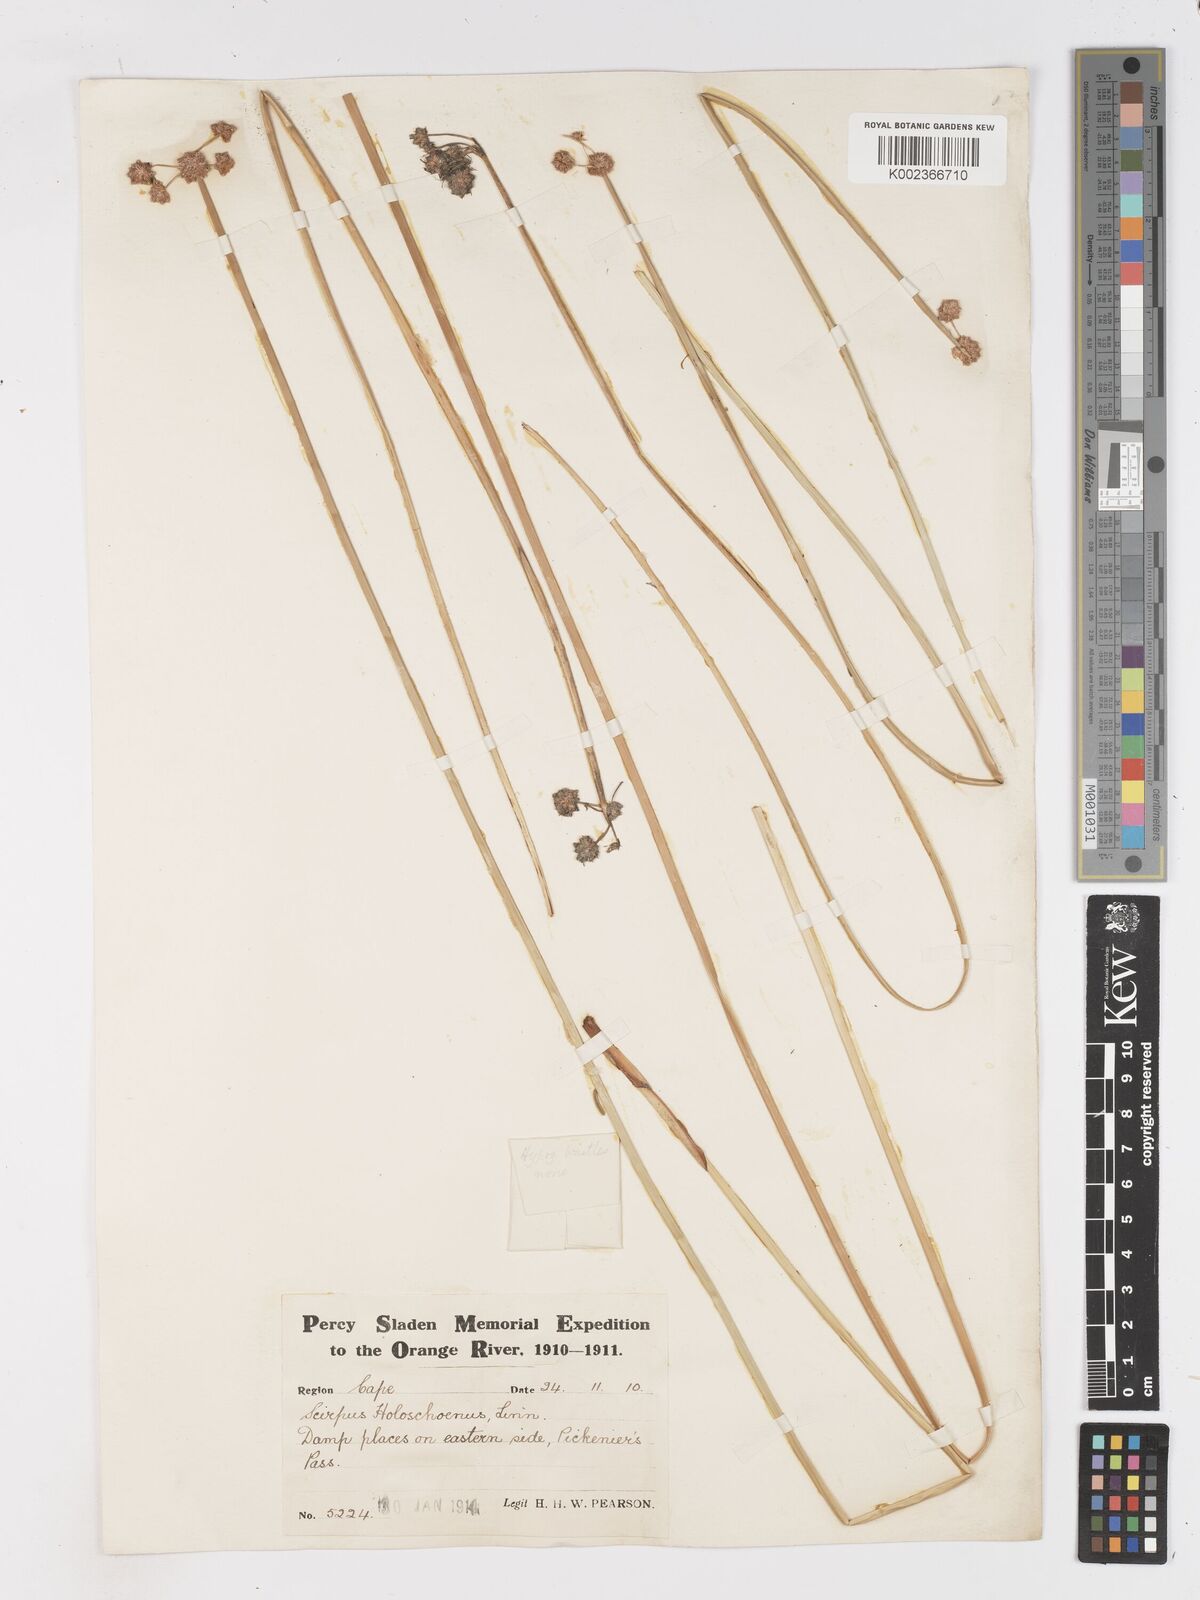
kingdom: Plantae
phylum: Tracheophyta
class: Liliopsida
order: Poales
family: Cyperaceae
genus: Scirpoides
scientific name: Scirpoides holoschoenus
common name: Round-headed club-rush
